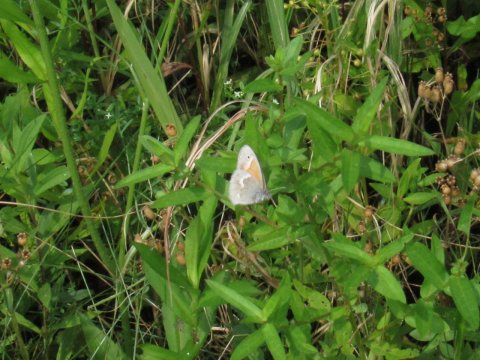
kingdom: Animalia
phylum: Arthropoda
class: Insecta
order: Lepidoptera
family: Nymphalidae
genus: Coenonympha
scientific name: Coenonympha tullia
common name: Large Heath
